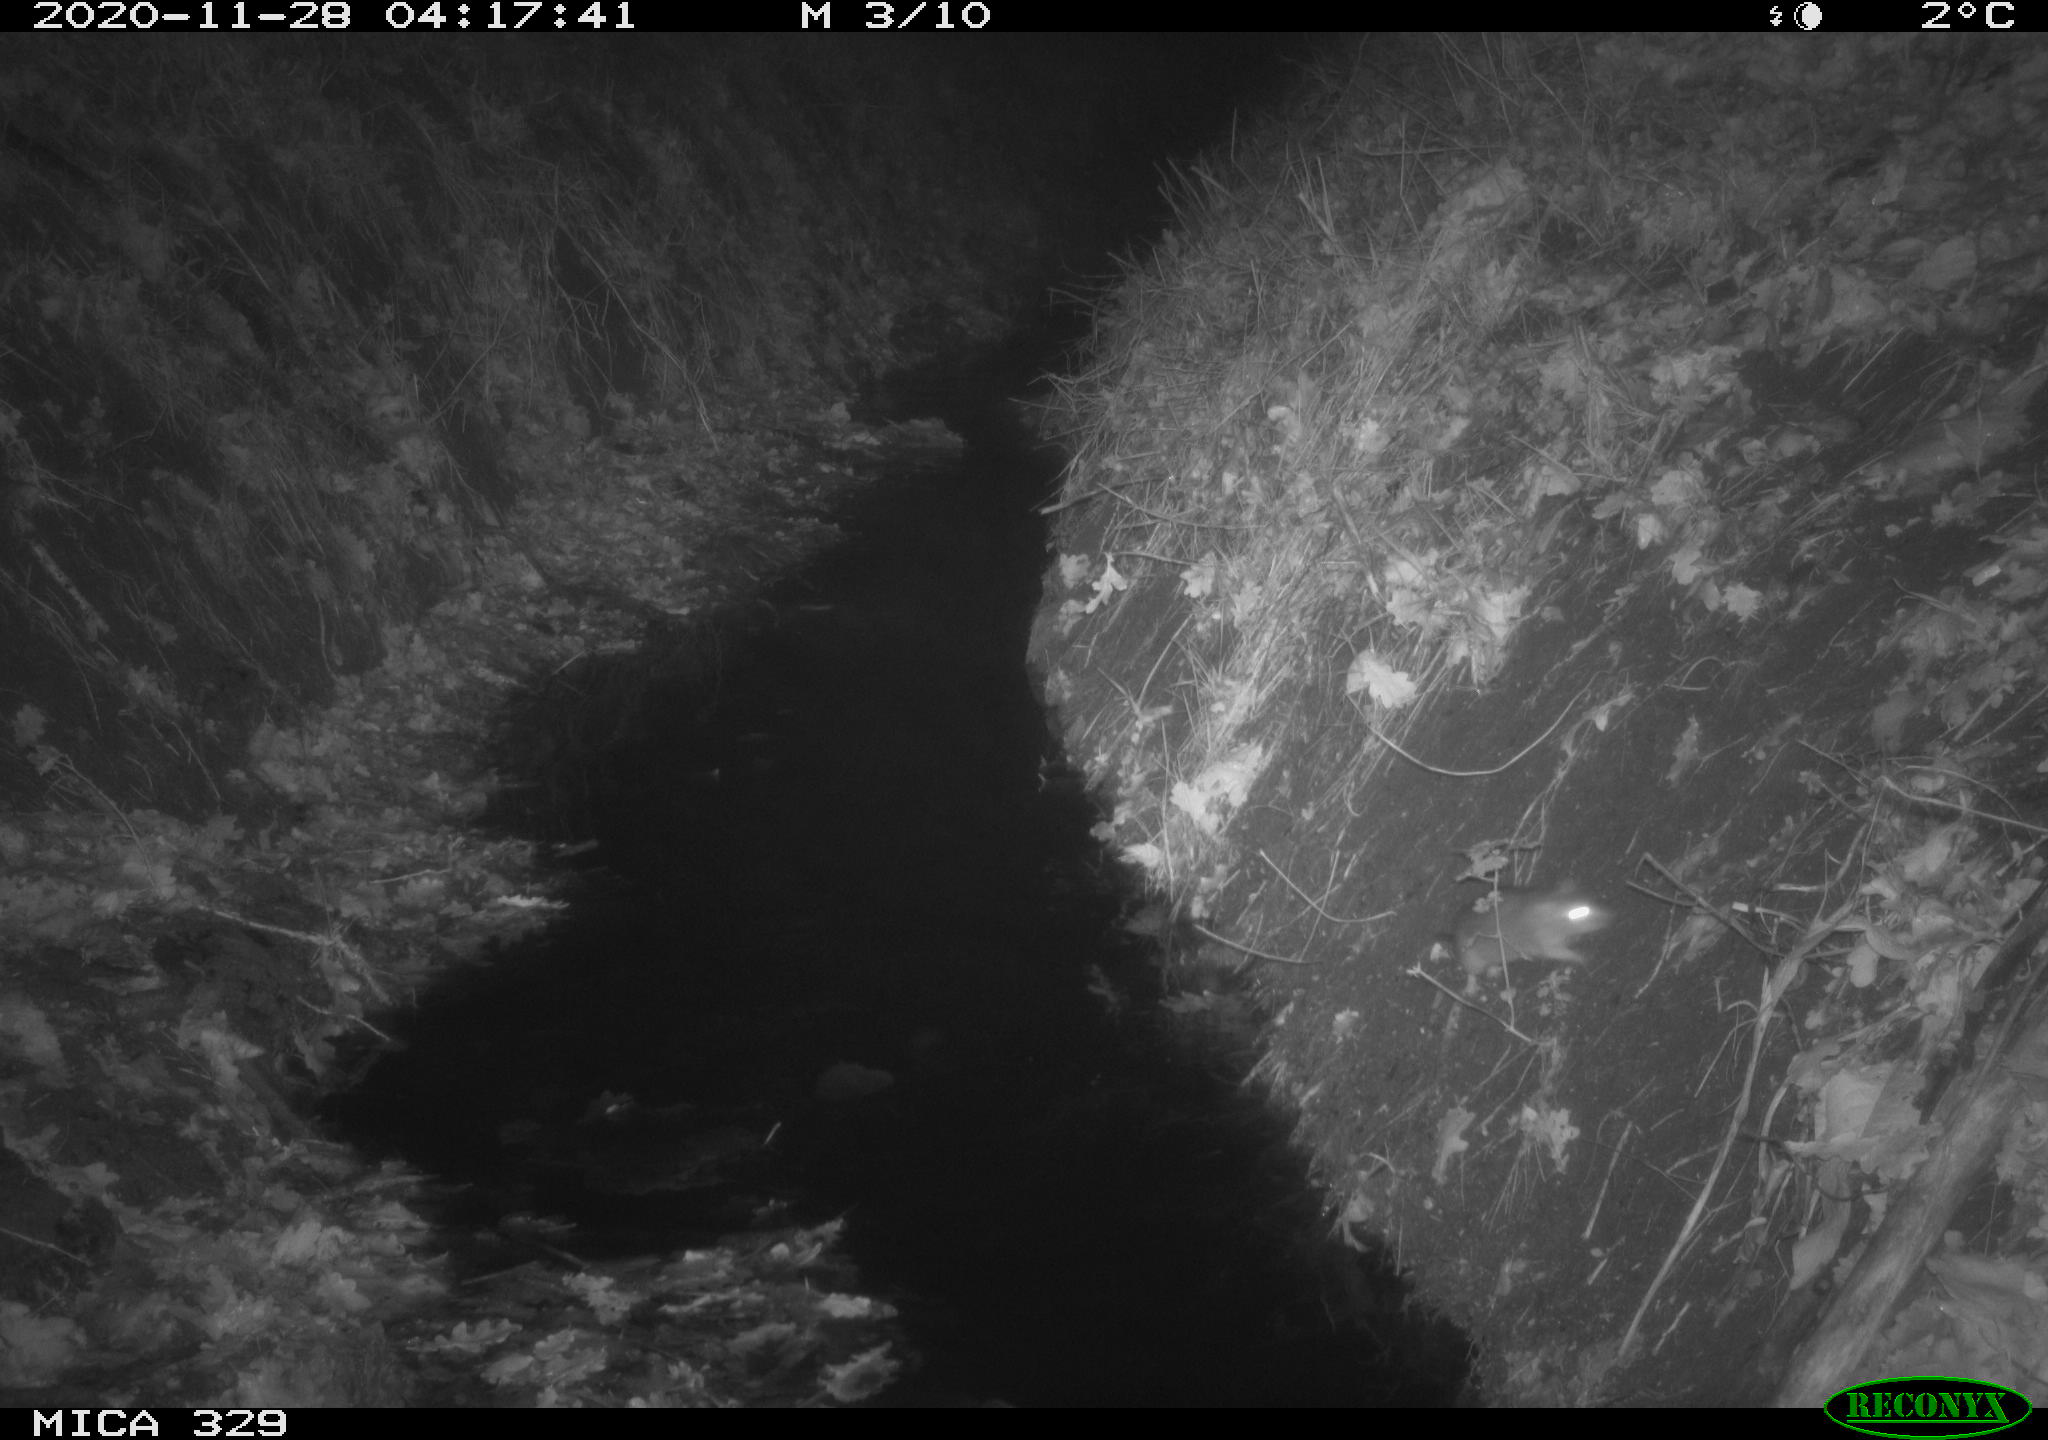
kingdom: Animalia
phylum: Chordata
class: Mammalia
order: Rodentia
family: Muridae
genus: Rattus
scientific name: Rattus norvegicus
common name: Brown rat
